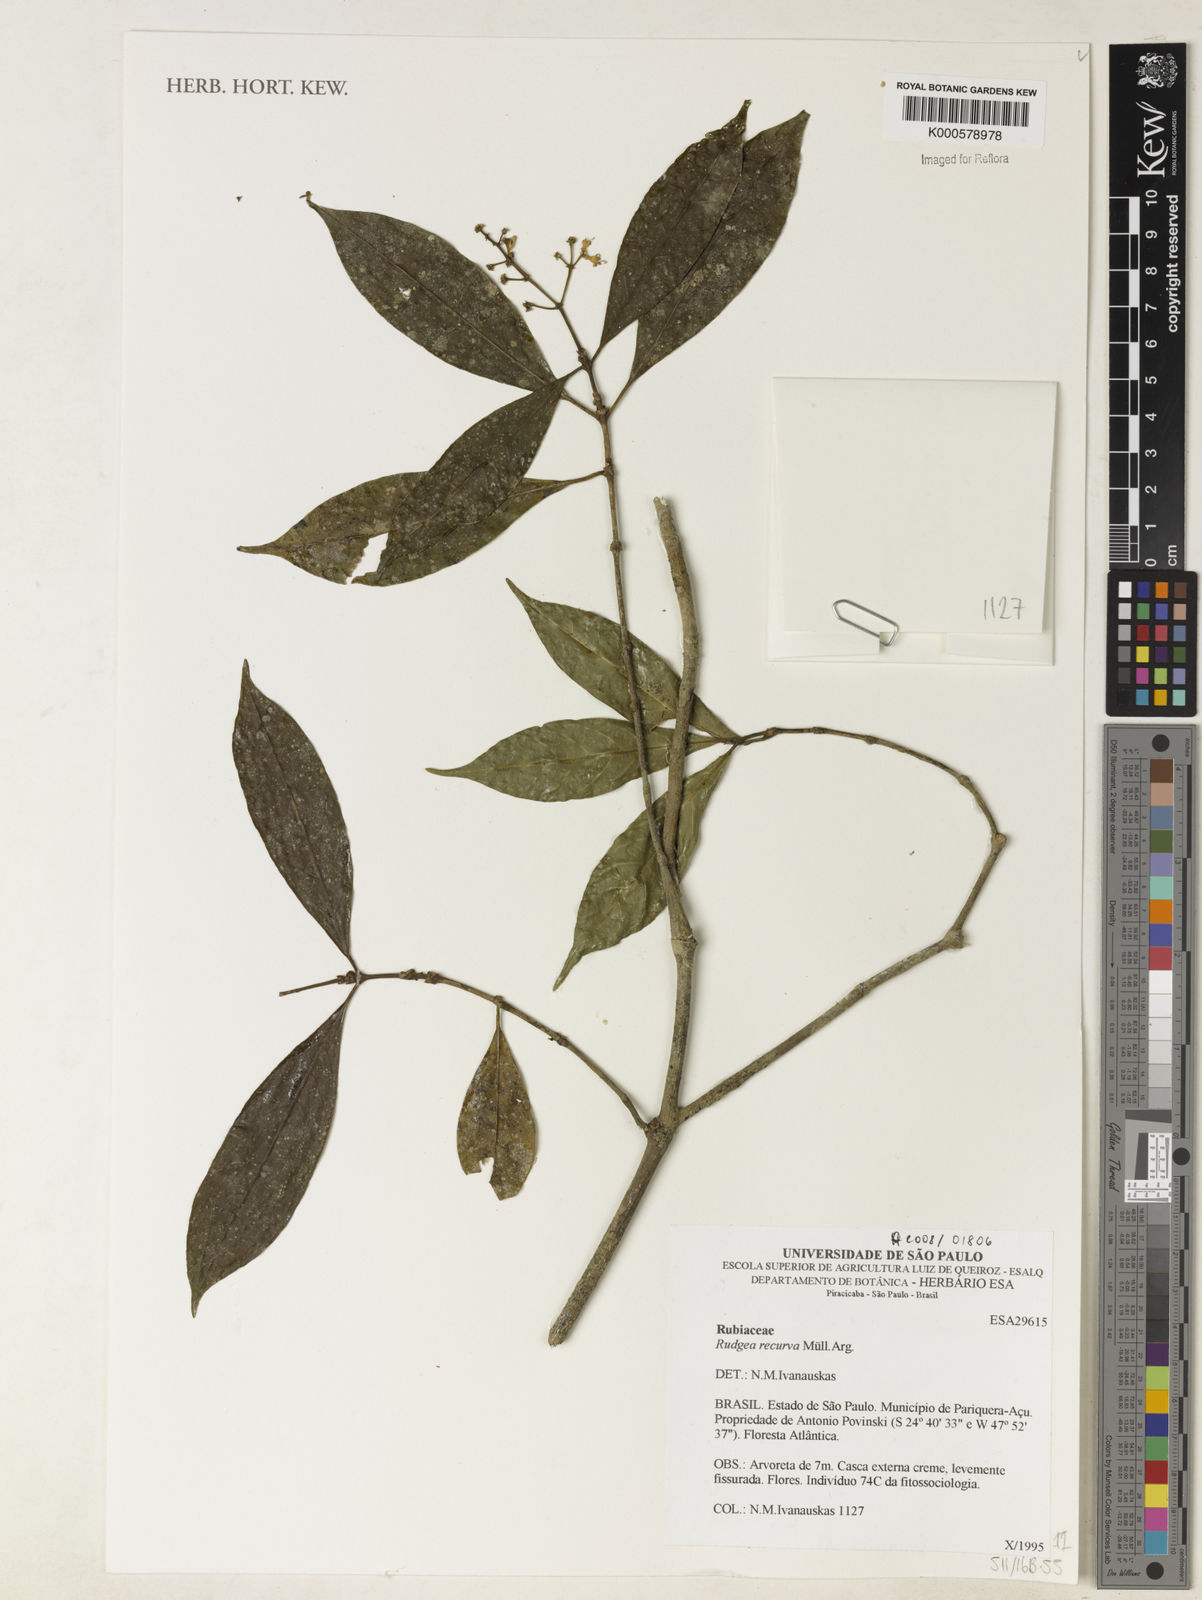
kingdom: Plantae
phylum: Tracheophyta
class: Magnoliopsida
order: Gentianales
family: Rubiaceae
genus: Rudgea
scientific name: Rudgea recurva
